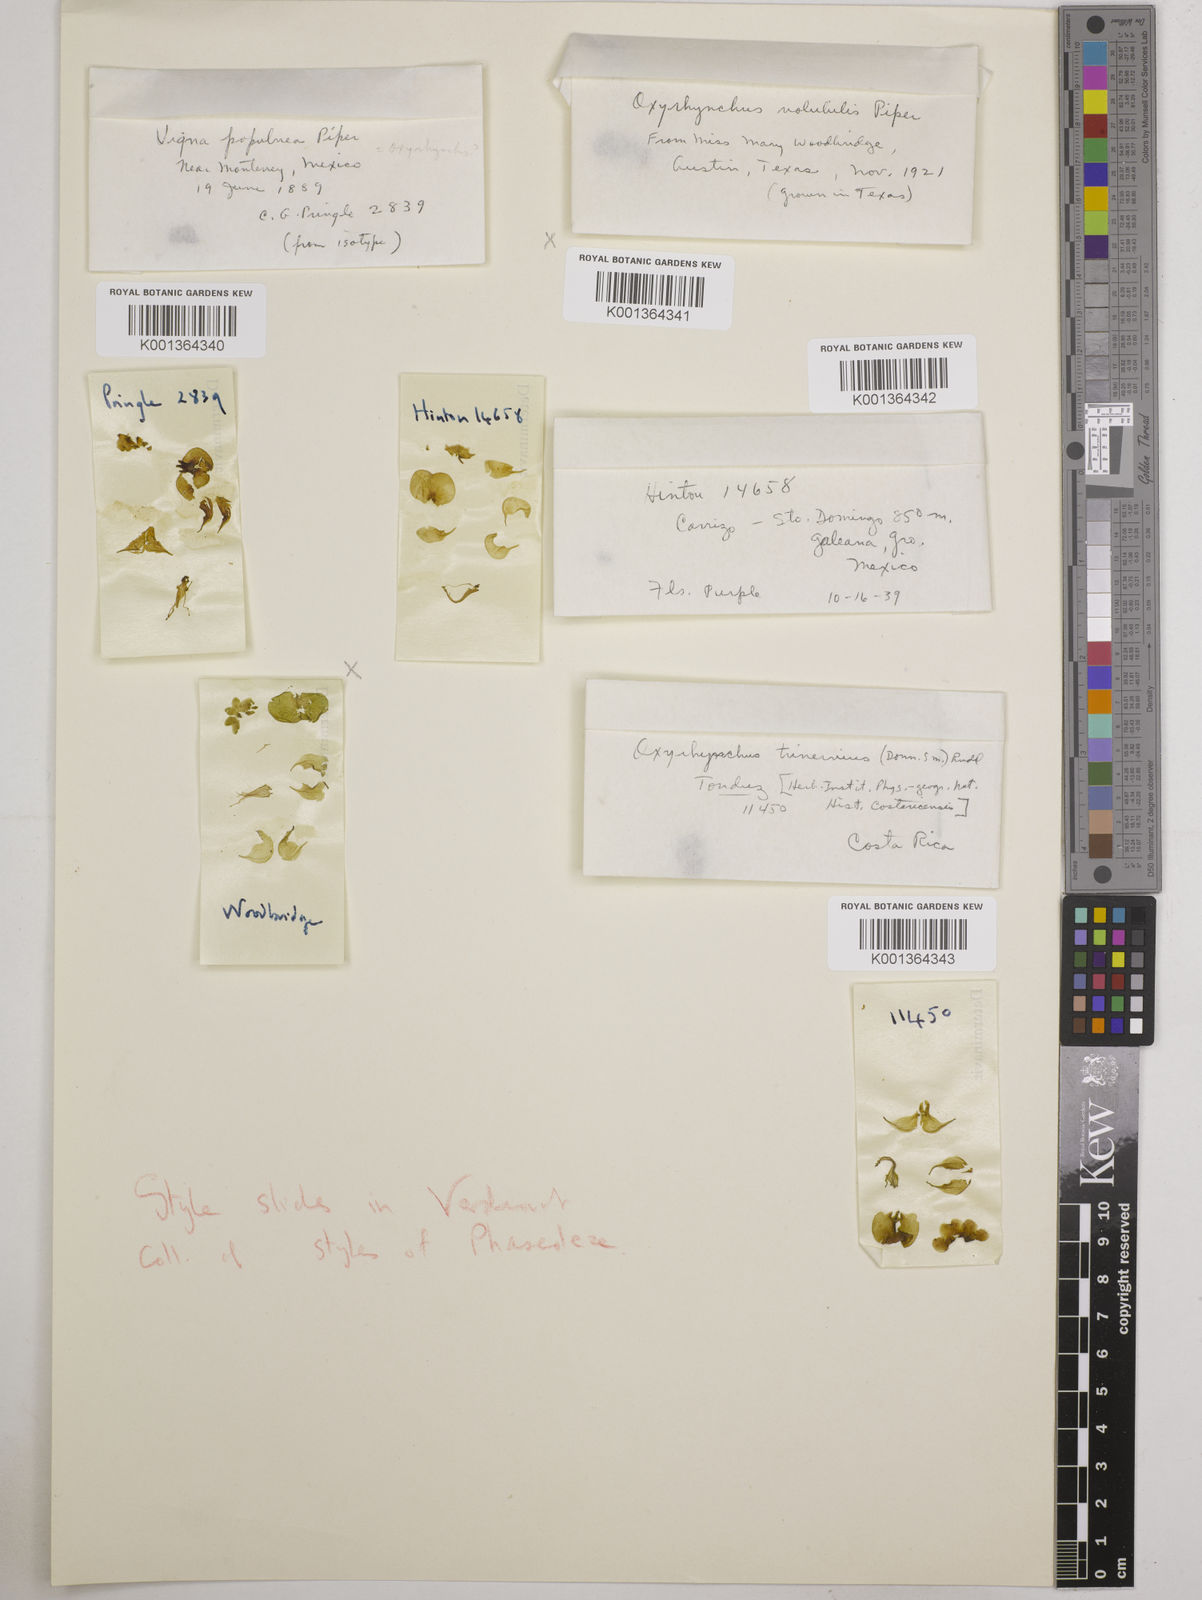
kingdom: Plantae
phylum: Tracheophyta
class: Magnoliopsida
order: Fabales
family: Fabaceae
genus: Oxyrhynchus
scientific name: Oxyrhynchus volubilis
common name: Twining bluehood
